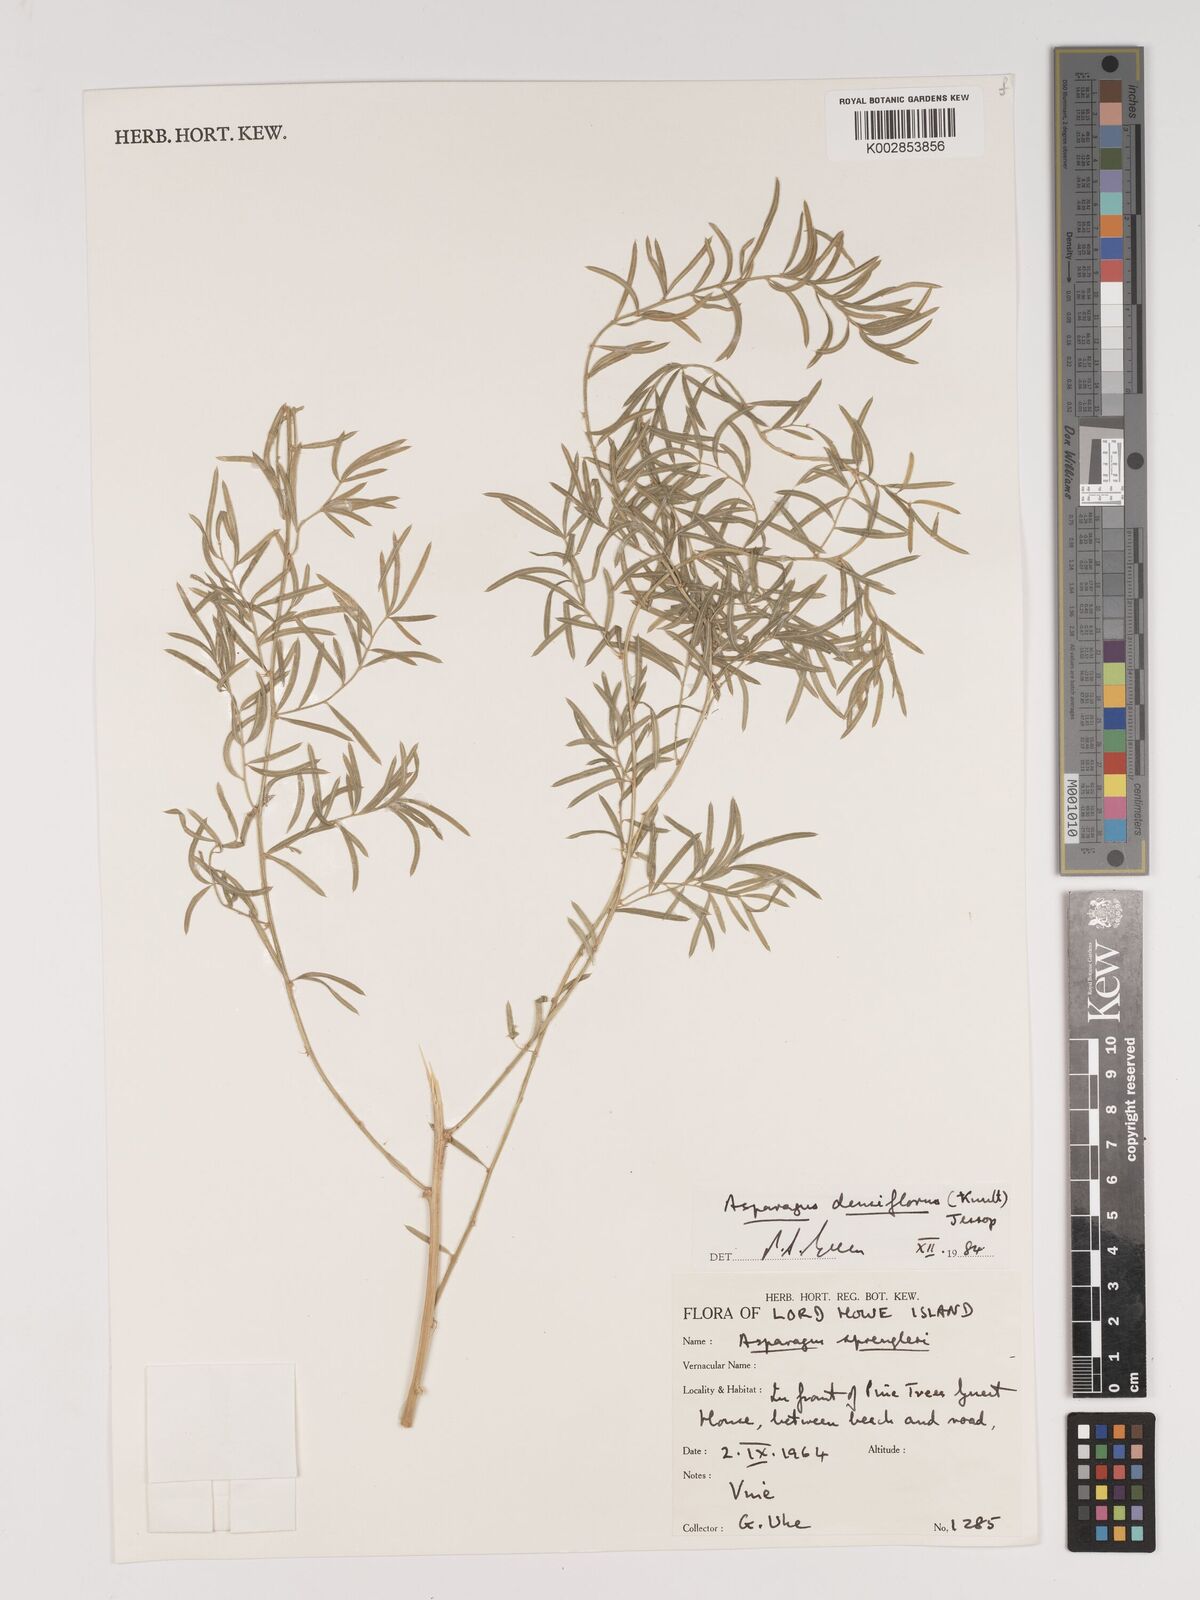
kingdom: Plantae
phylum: Tracheophyta
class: Liliopsida
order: Asparagales
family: Asparagaceae
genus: Asparagus
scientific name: Asparagus densiflorus
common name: Asparagus fern
